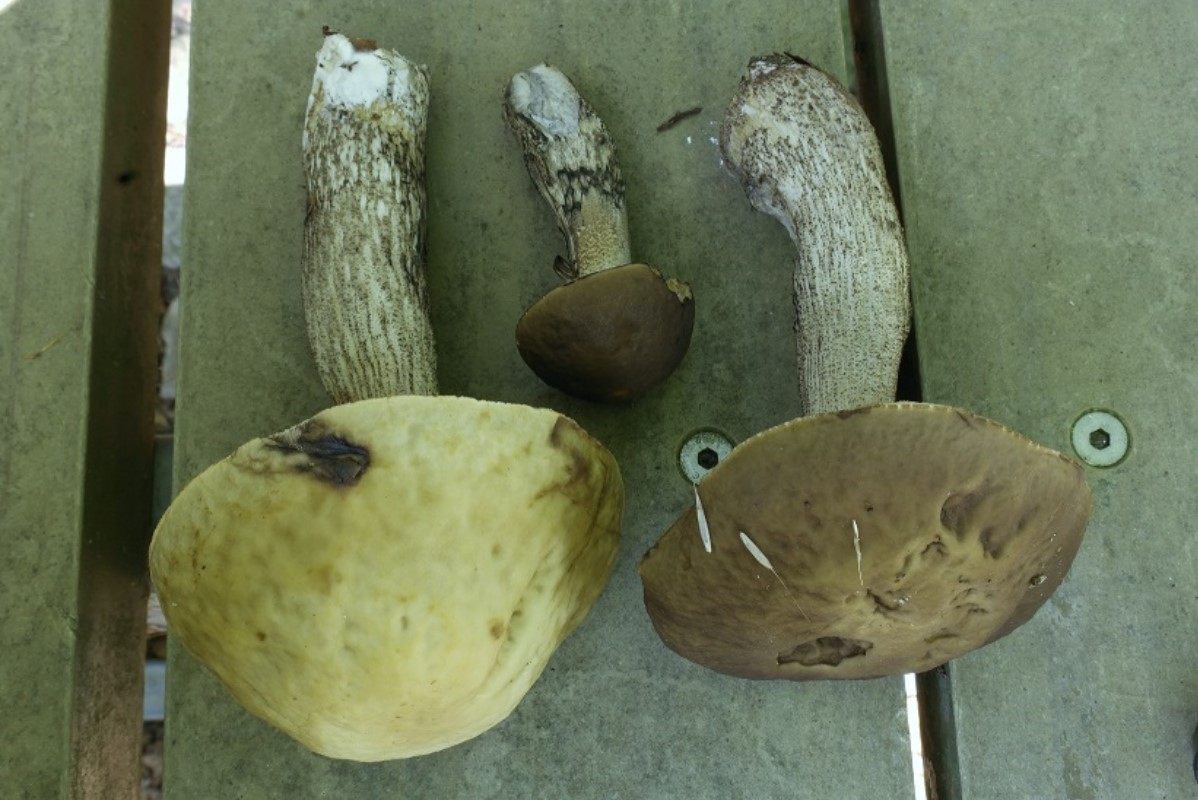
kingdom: Fungi
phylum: Basidiomycota
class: Agaricomycetes
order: Boletales
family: Boletaceae
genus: Leccinellum
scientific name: Leccinellum pseudoscabrum
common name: avnbøg-skælrørhat
